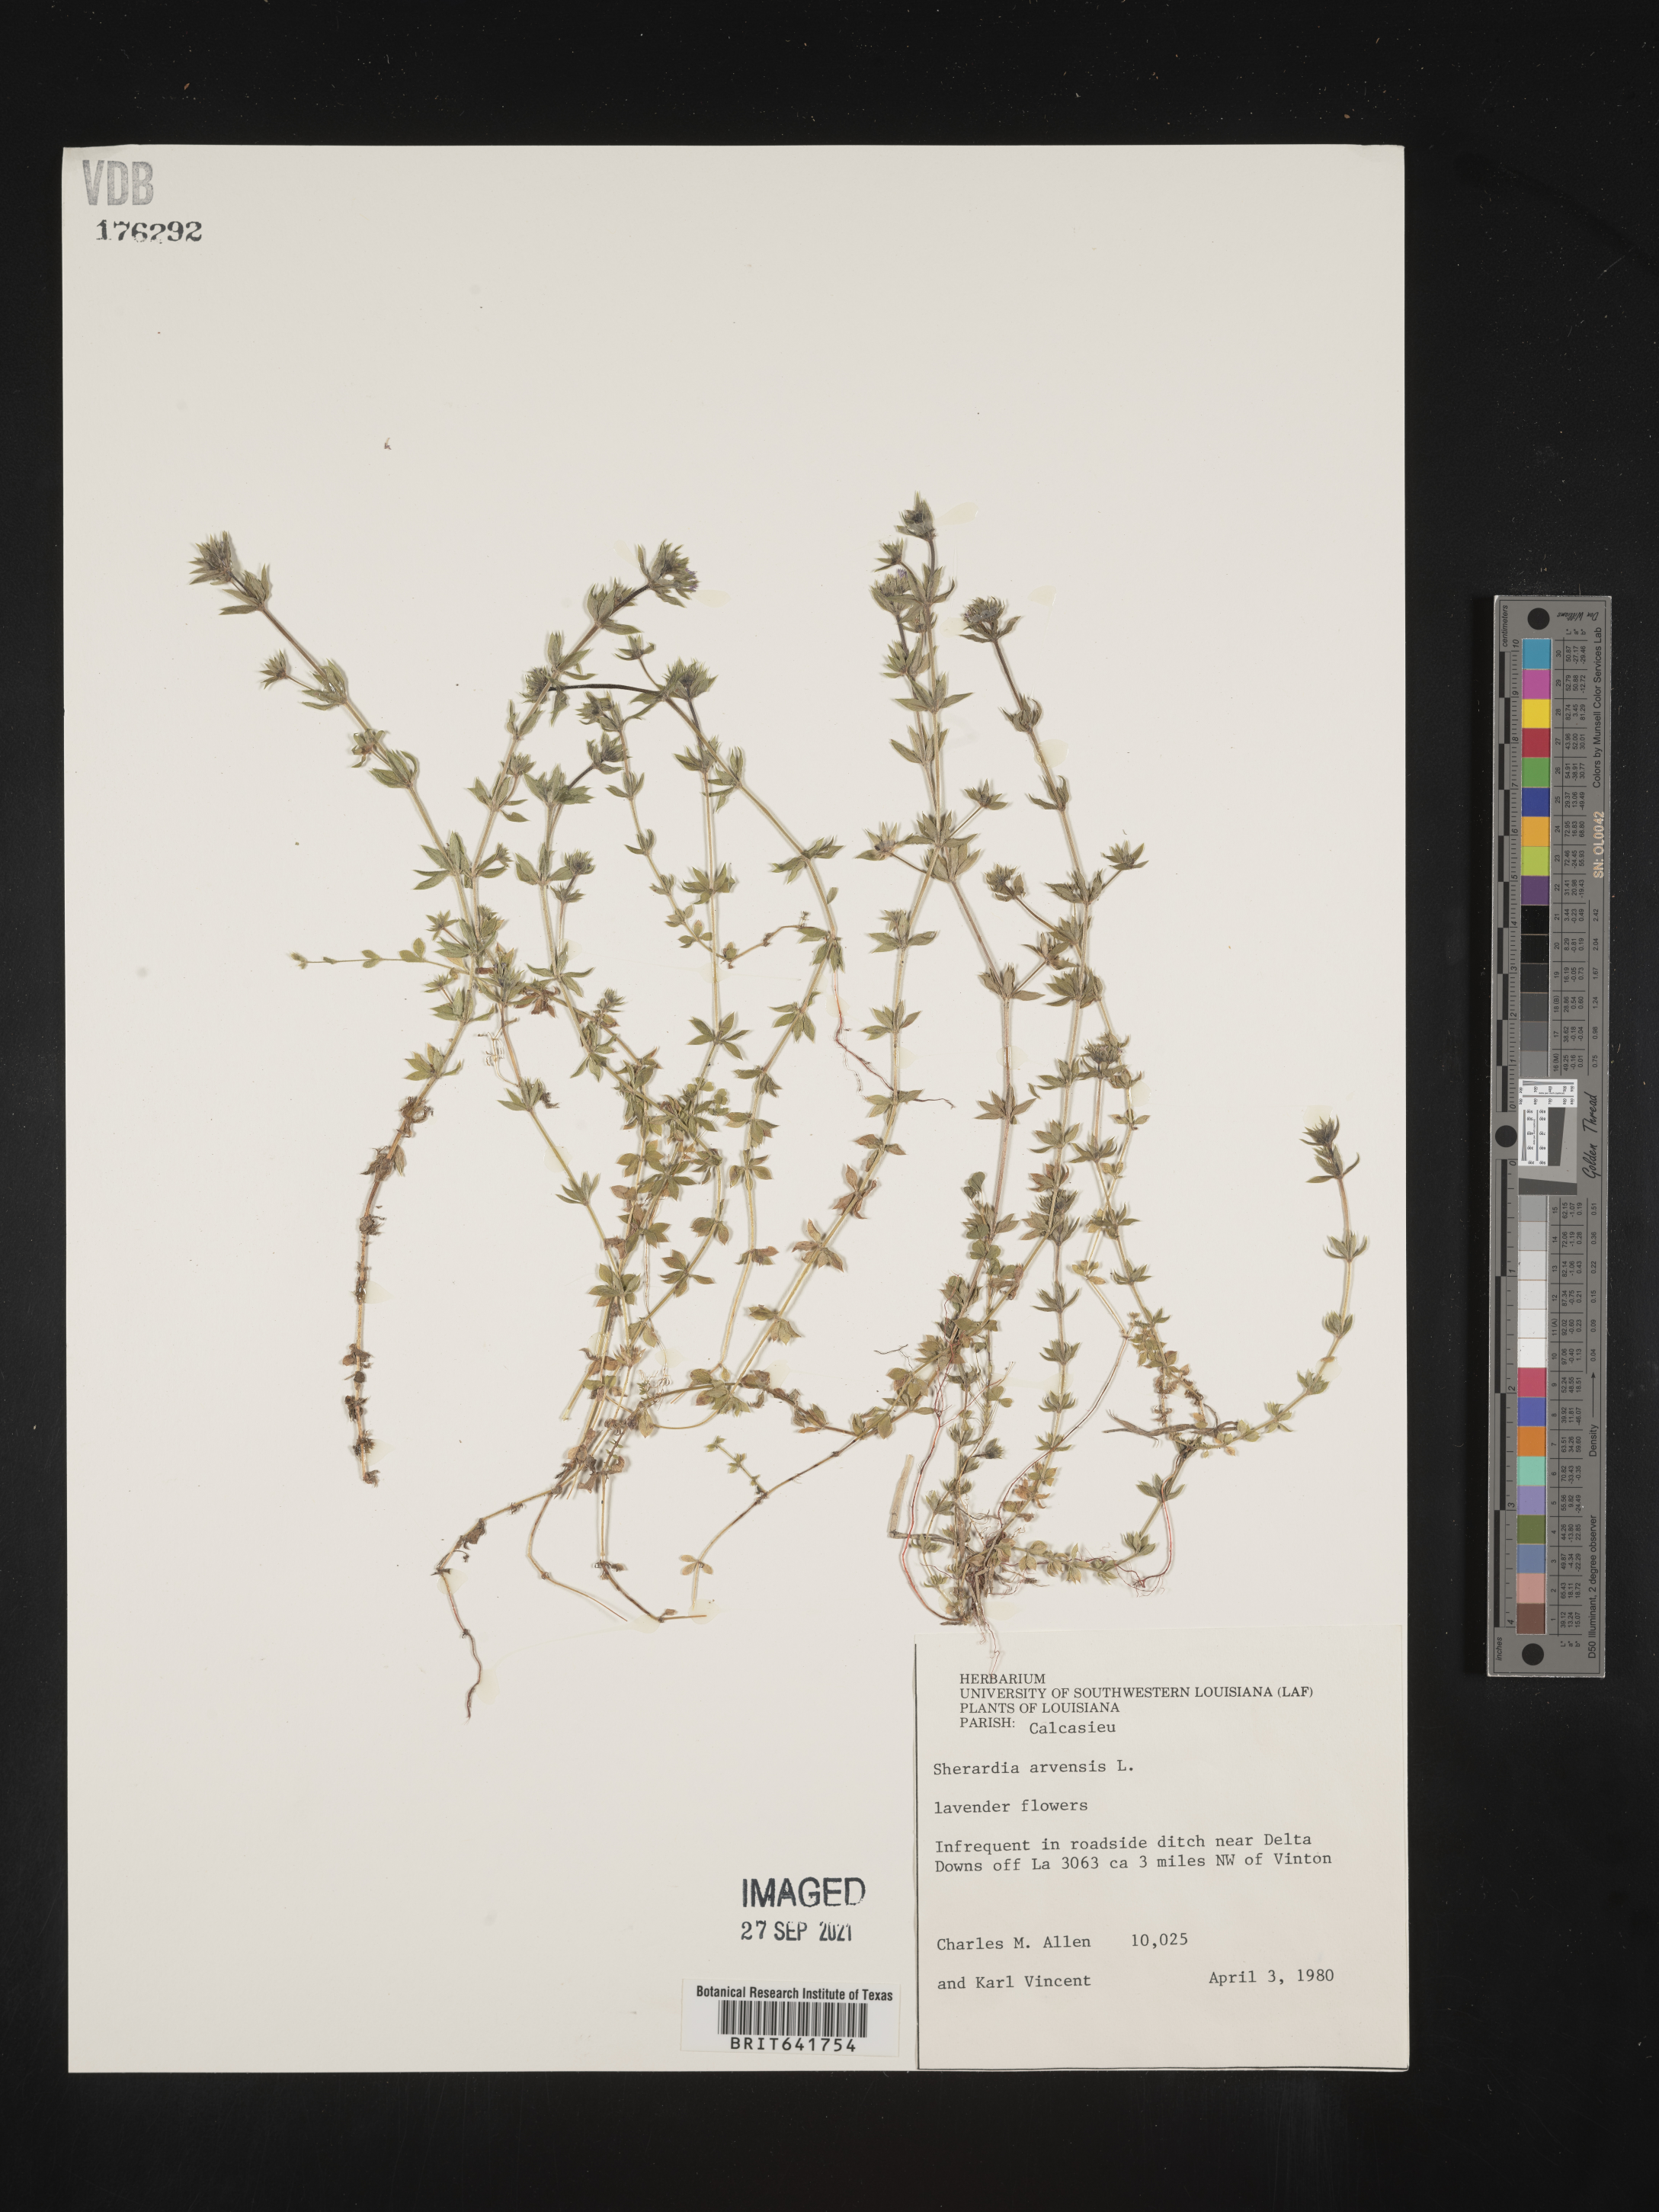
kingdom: Plantae
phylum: Tracheophyta
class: Magnoliopsida
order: Gentianales
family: Rubiaceae
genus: Sherardia
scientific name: Sherardia arvensis
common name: Field madder
